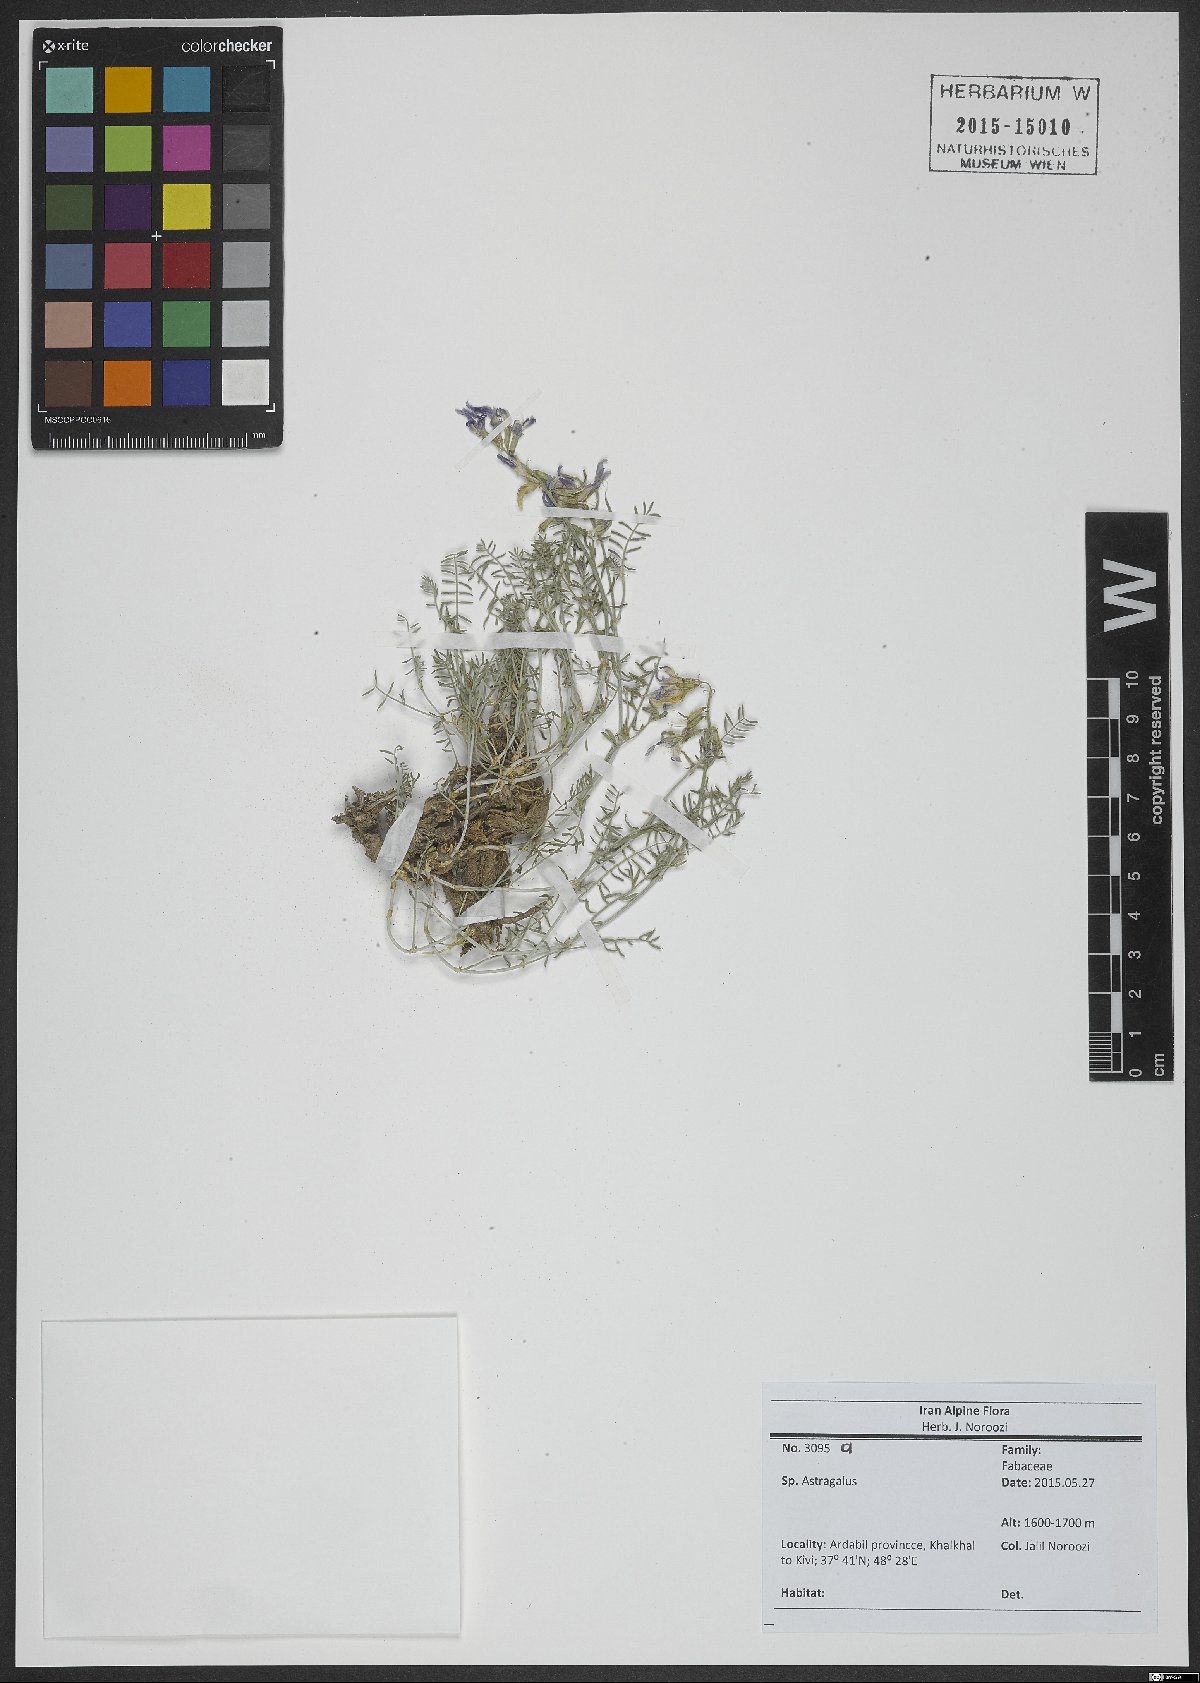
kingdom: Plantae
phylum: Tracheophyta
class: Magnoliopsida
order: Fabales
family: Fabaceae
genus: Astragalus
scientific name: Astragalus
